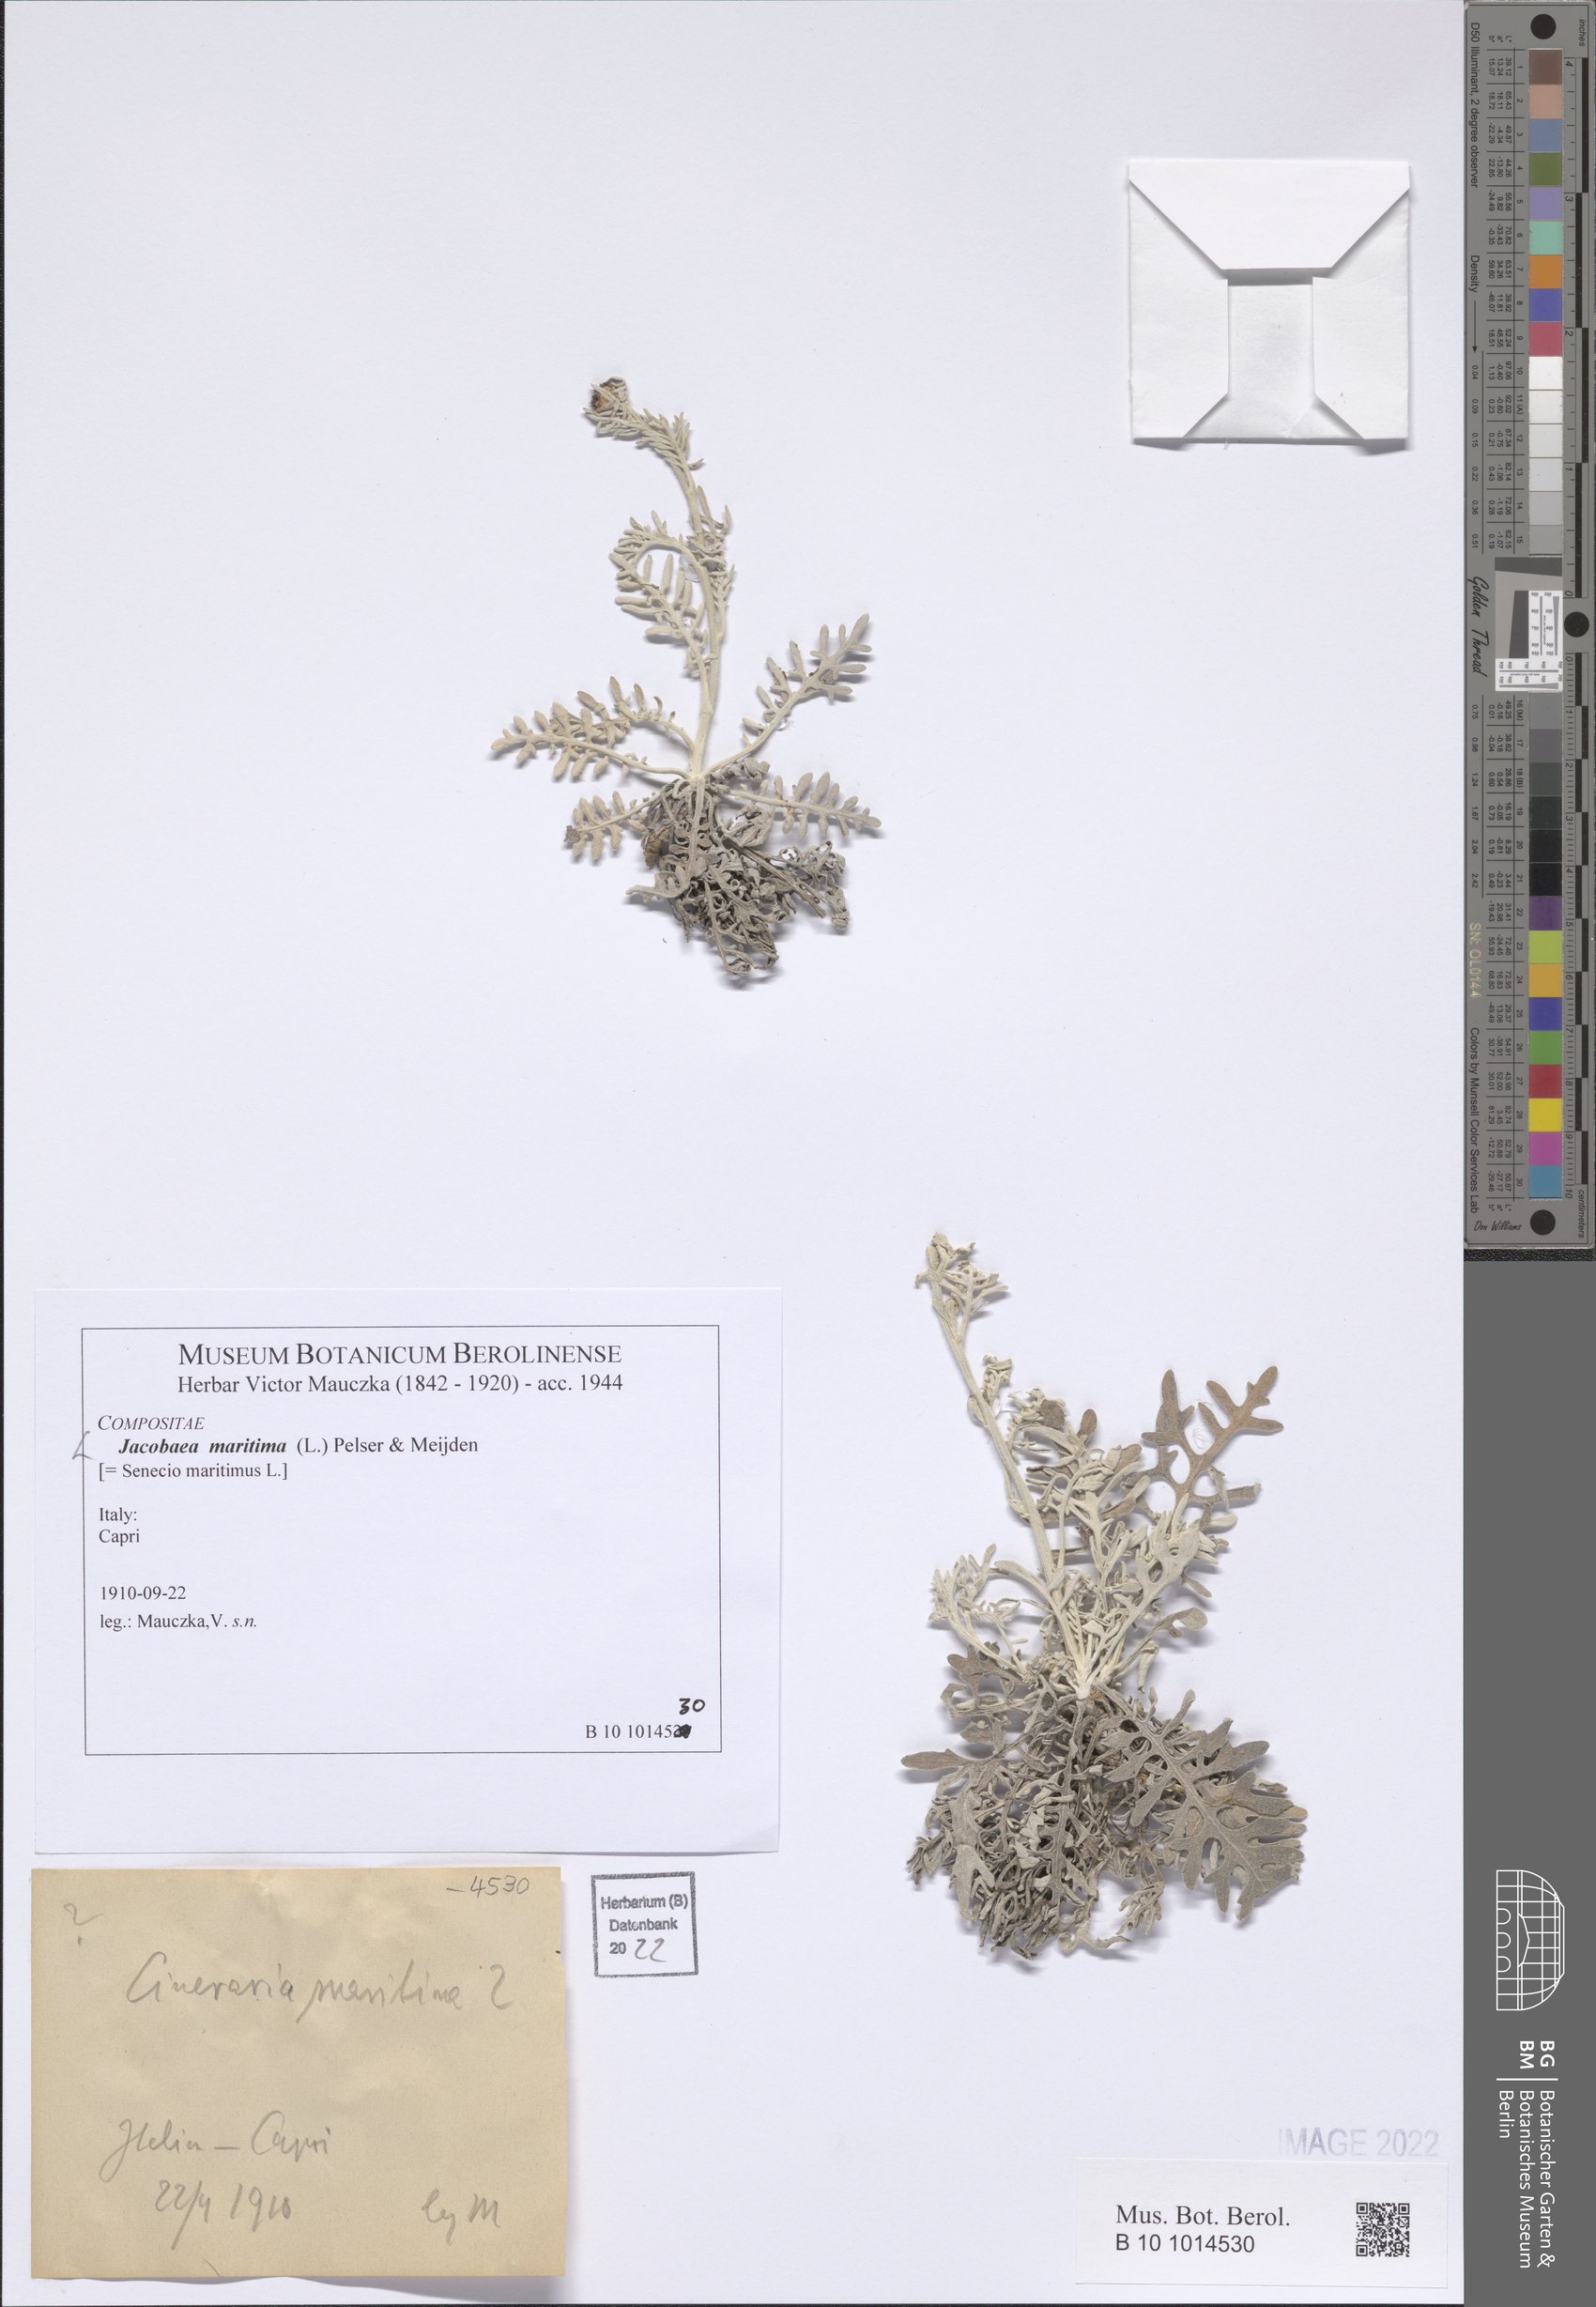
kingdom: Plantae
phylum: Tracheophyta
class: Magnoliopsida
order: Asterales
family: Asteraceae
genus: Jacobaea
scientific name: Jacobaea maritima
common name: Silver ragwort
